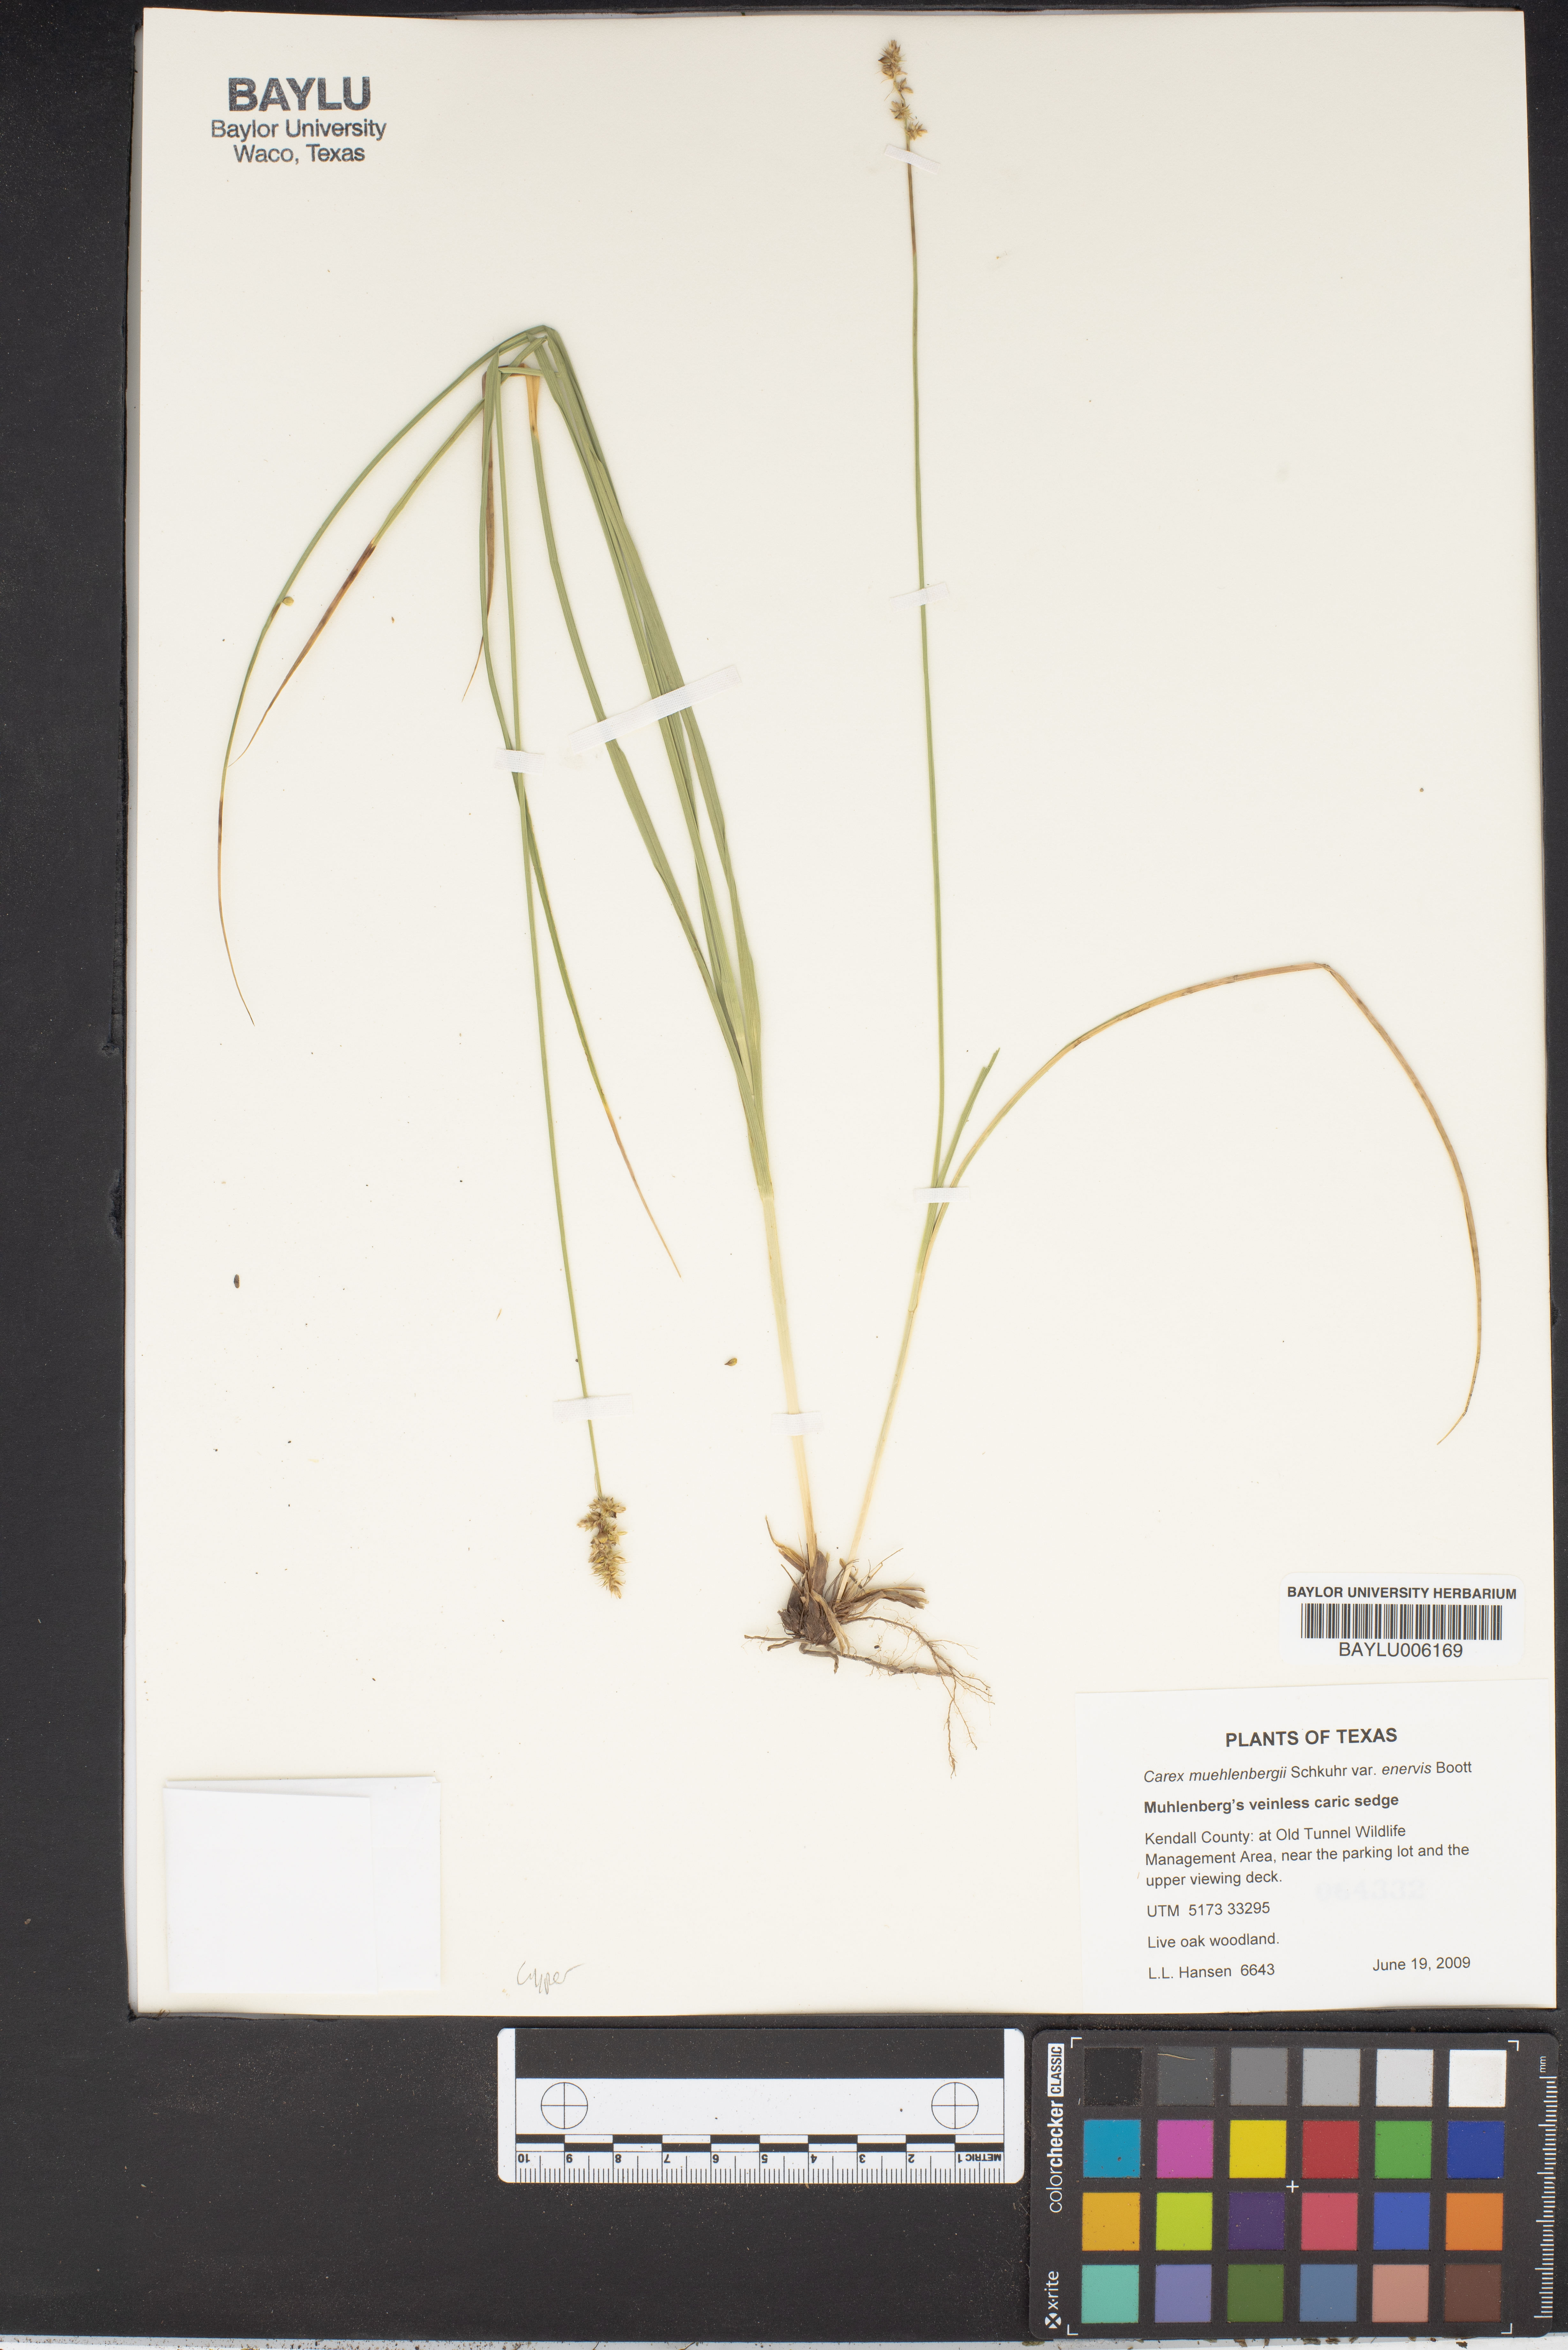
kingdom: Plantae
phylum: Tracheophyta
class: Liliopsida
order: Poales
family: Cyperaceae
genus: Carex
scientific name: Carex muehlenbergii
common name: Muhlenberg's bracted sedge
